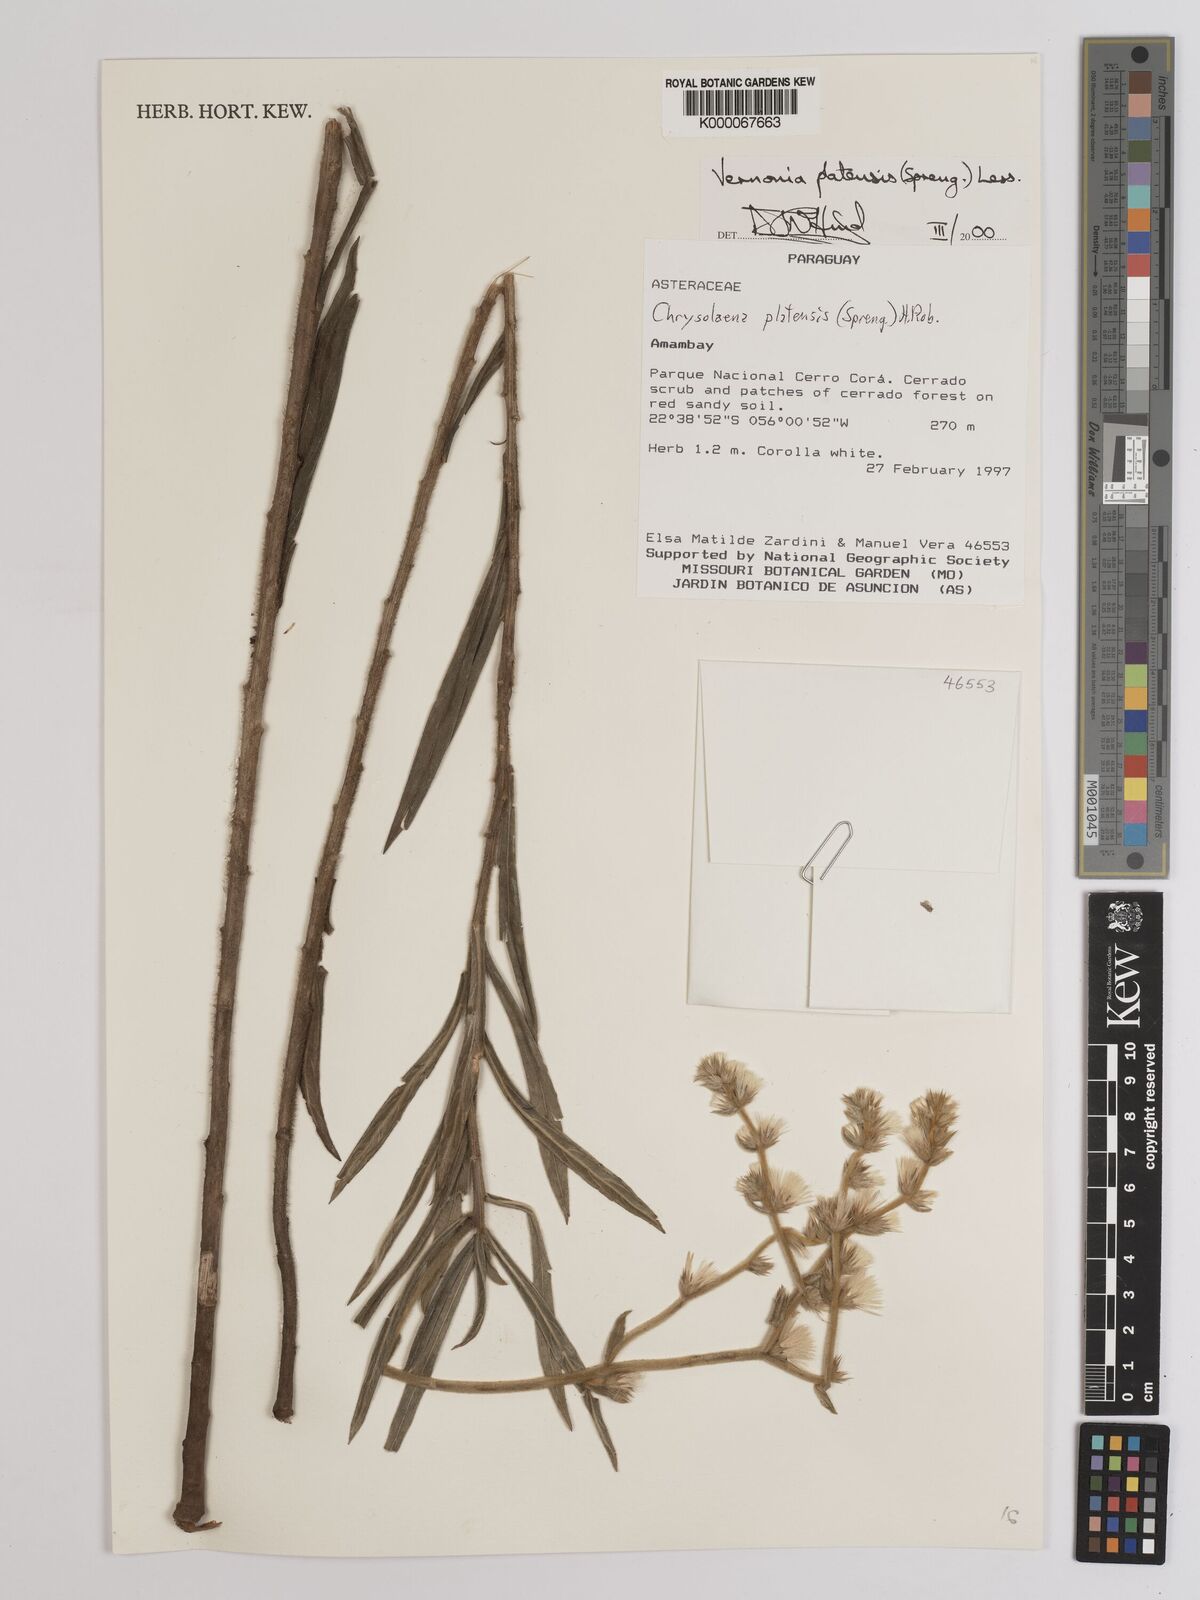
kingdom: Plantae
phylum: Tracheophyta
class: Magnoliopsida
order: Asterales
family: Asteraceae
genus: Chrysolaena
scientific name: Chrysolaena platensis
